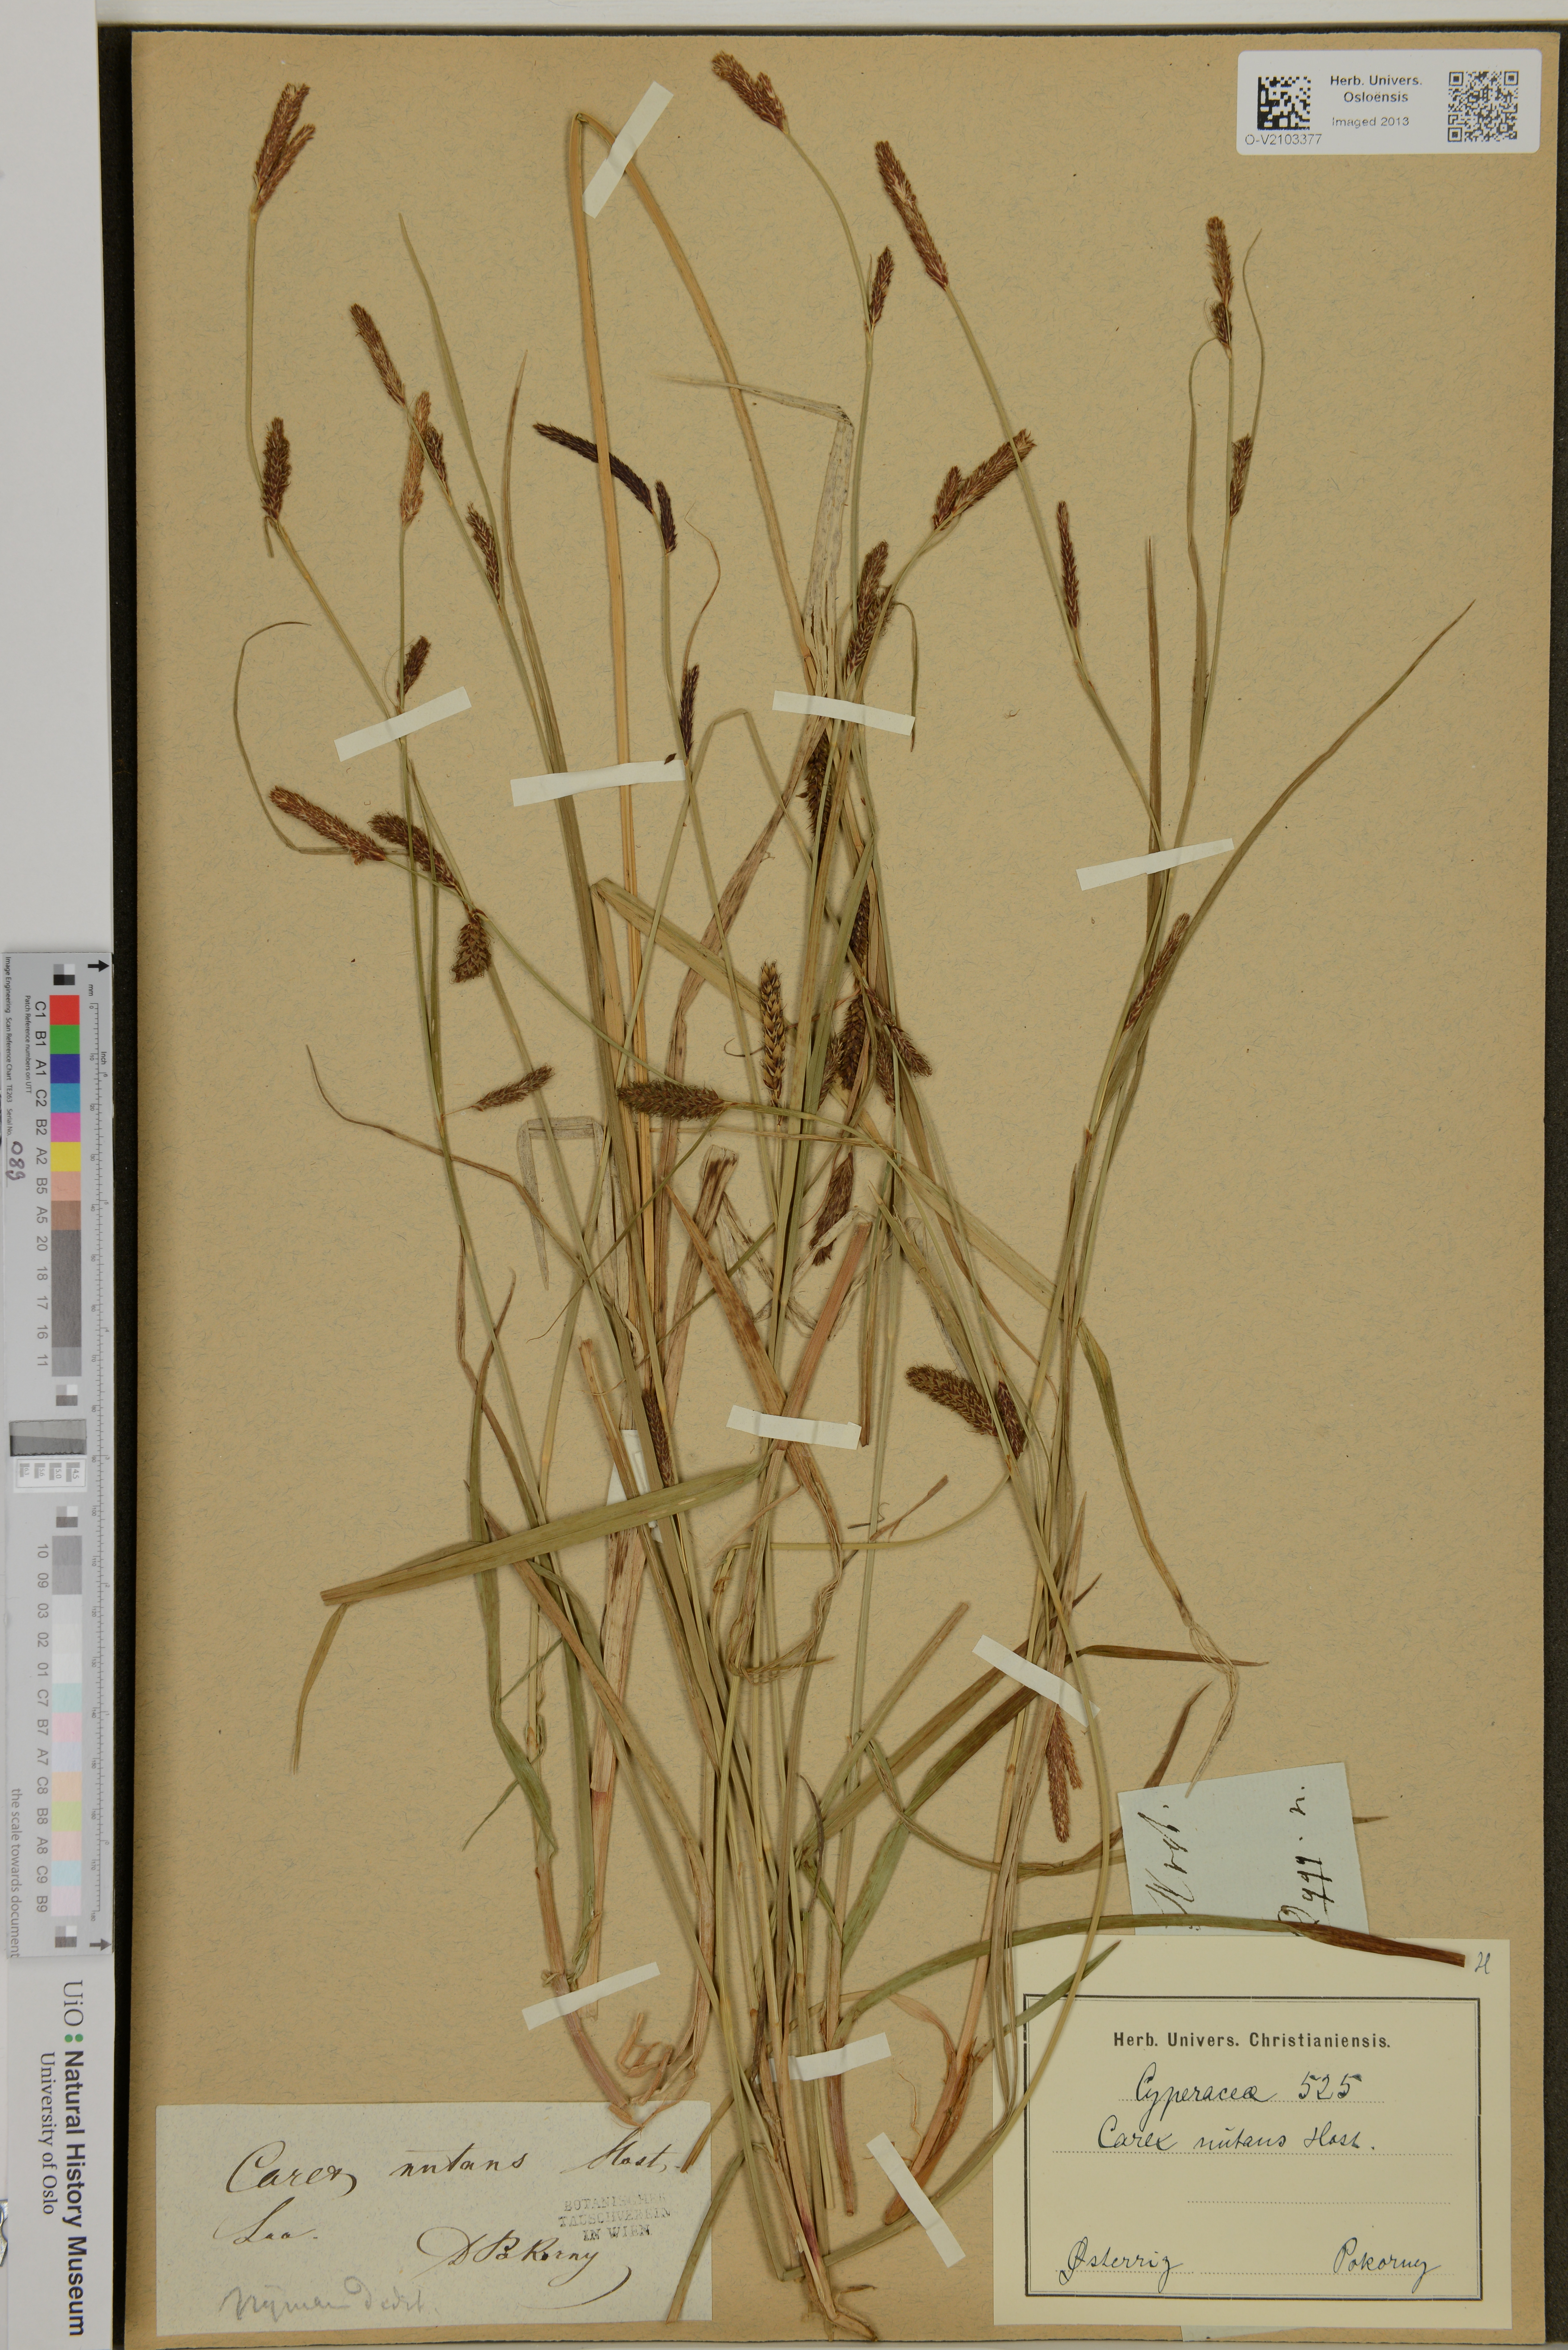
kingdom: Plantae
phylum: Tracheophyta
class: Liliopsida
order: Poales
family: Cyperaceae
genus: Carex
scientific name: Carex nutans
